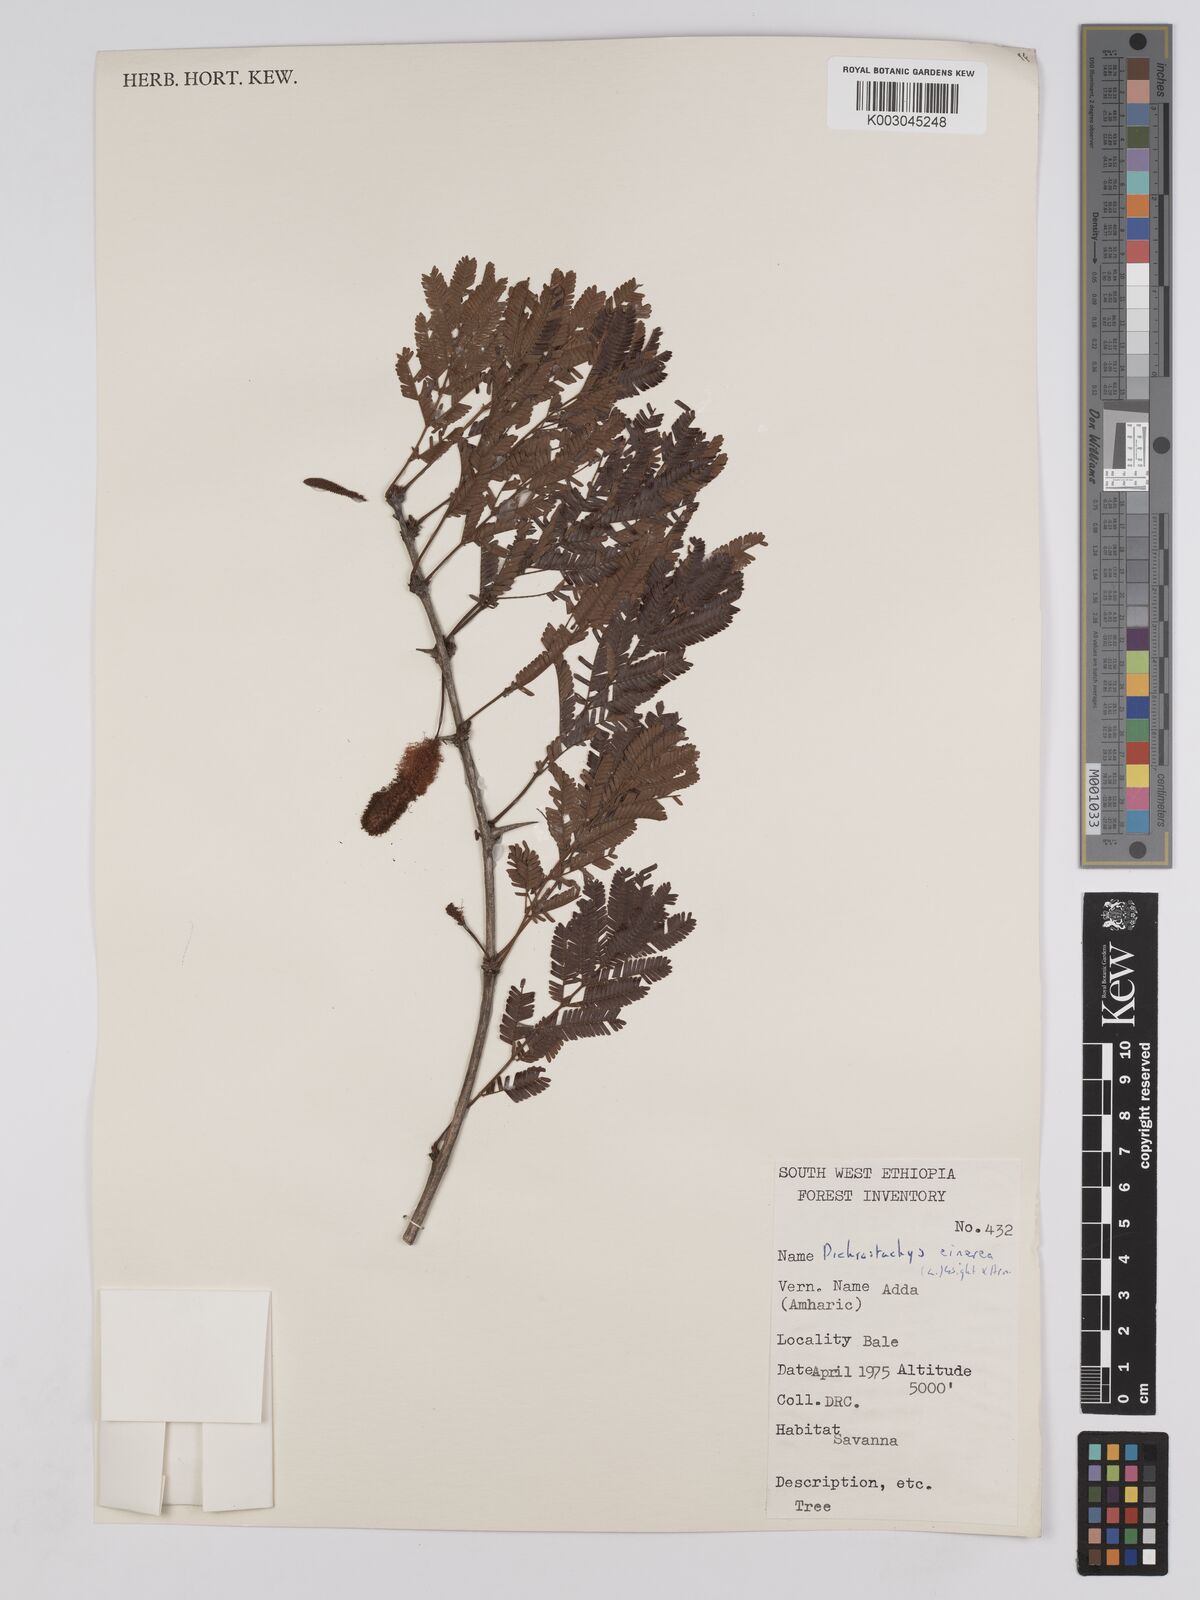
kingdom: Plantae
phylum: Tracheophyta
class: Magnoliopsida
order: Fabales
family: Fabaceae
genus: Dichrostachys
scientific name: Dichrostachys cinerea
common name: Sicklebush
